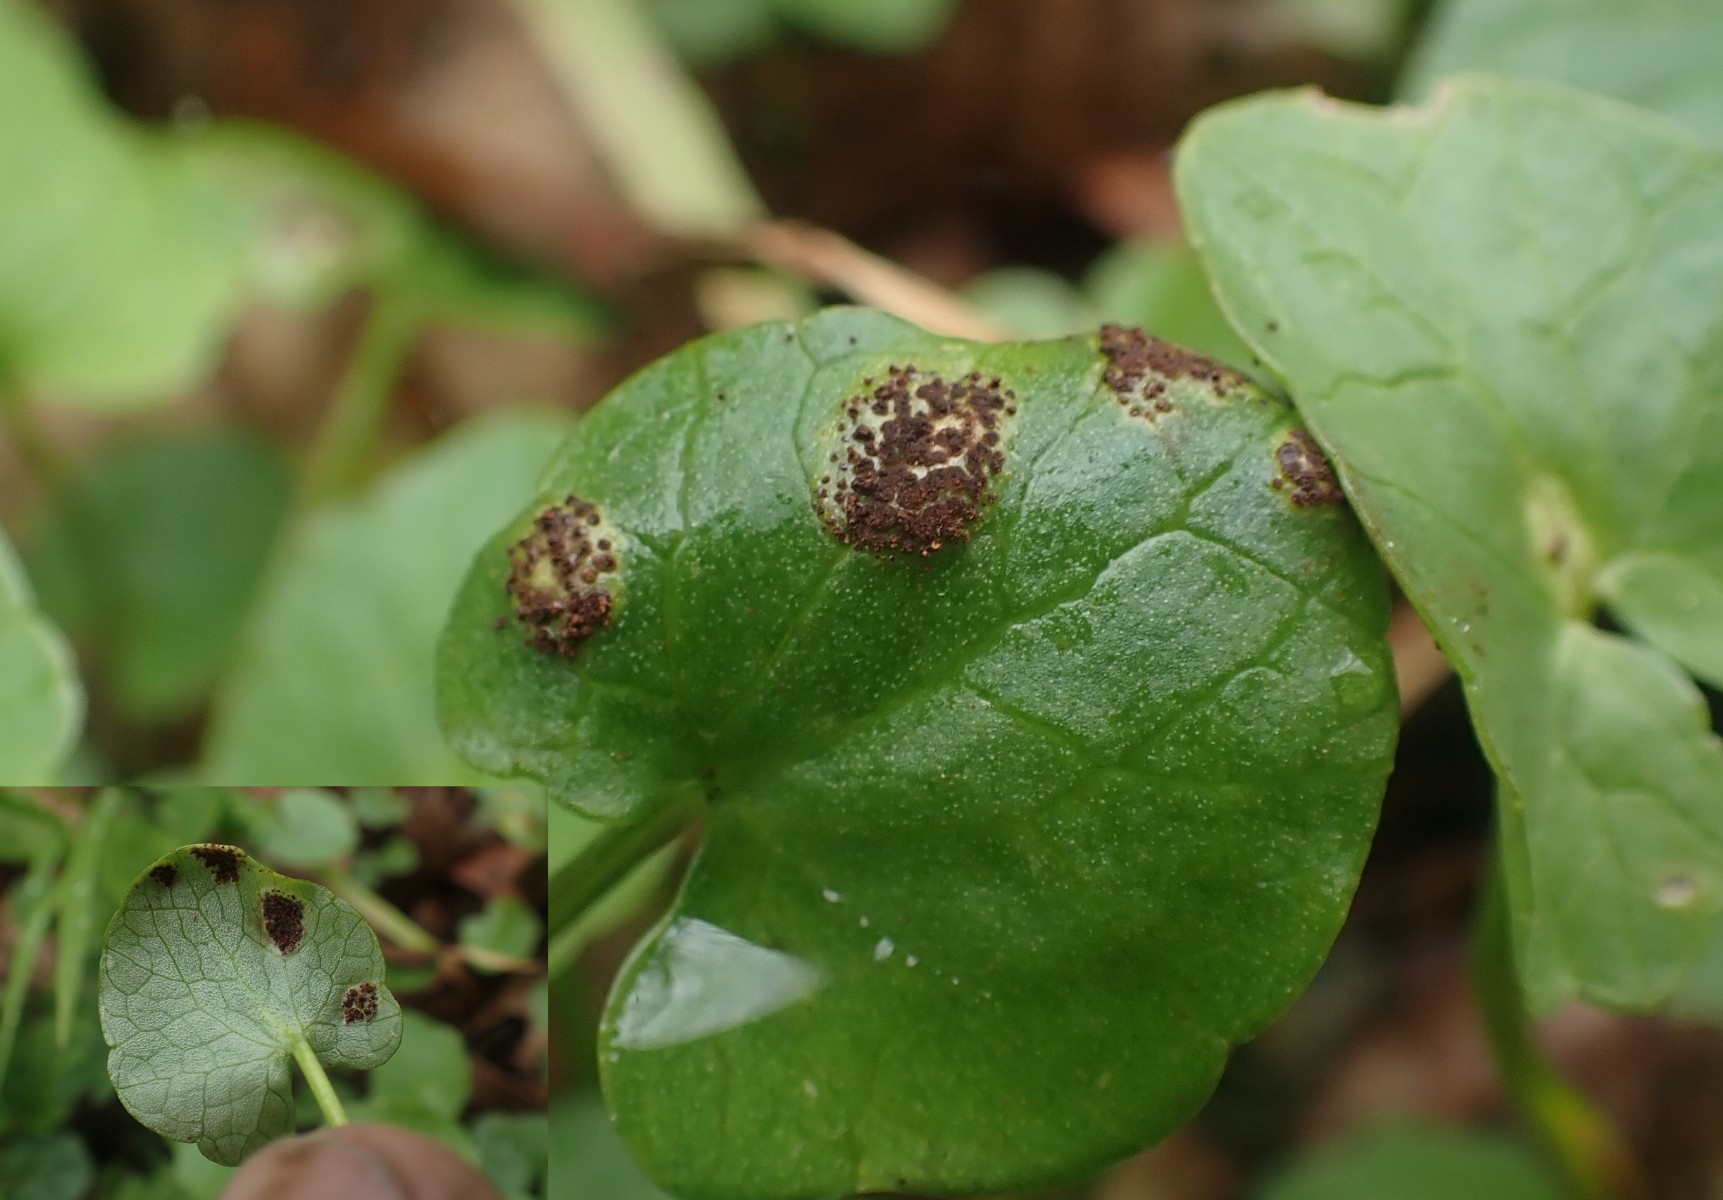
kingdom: Fungi
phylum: Basidiomycota
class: Pucciniomycetes
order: Pucciniales
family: Pucciniaceae
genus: Uromyces
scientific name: Uromyces ficariae
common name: vorterod-encellerust
